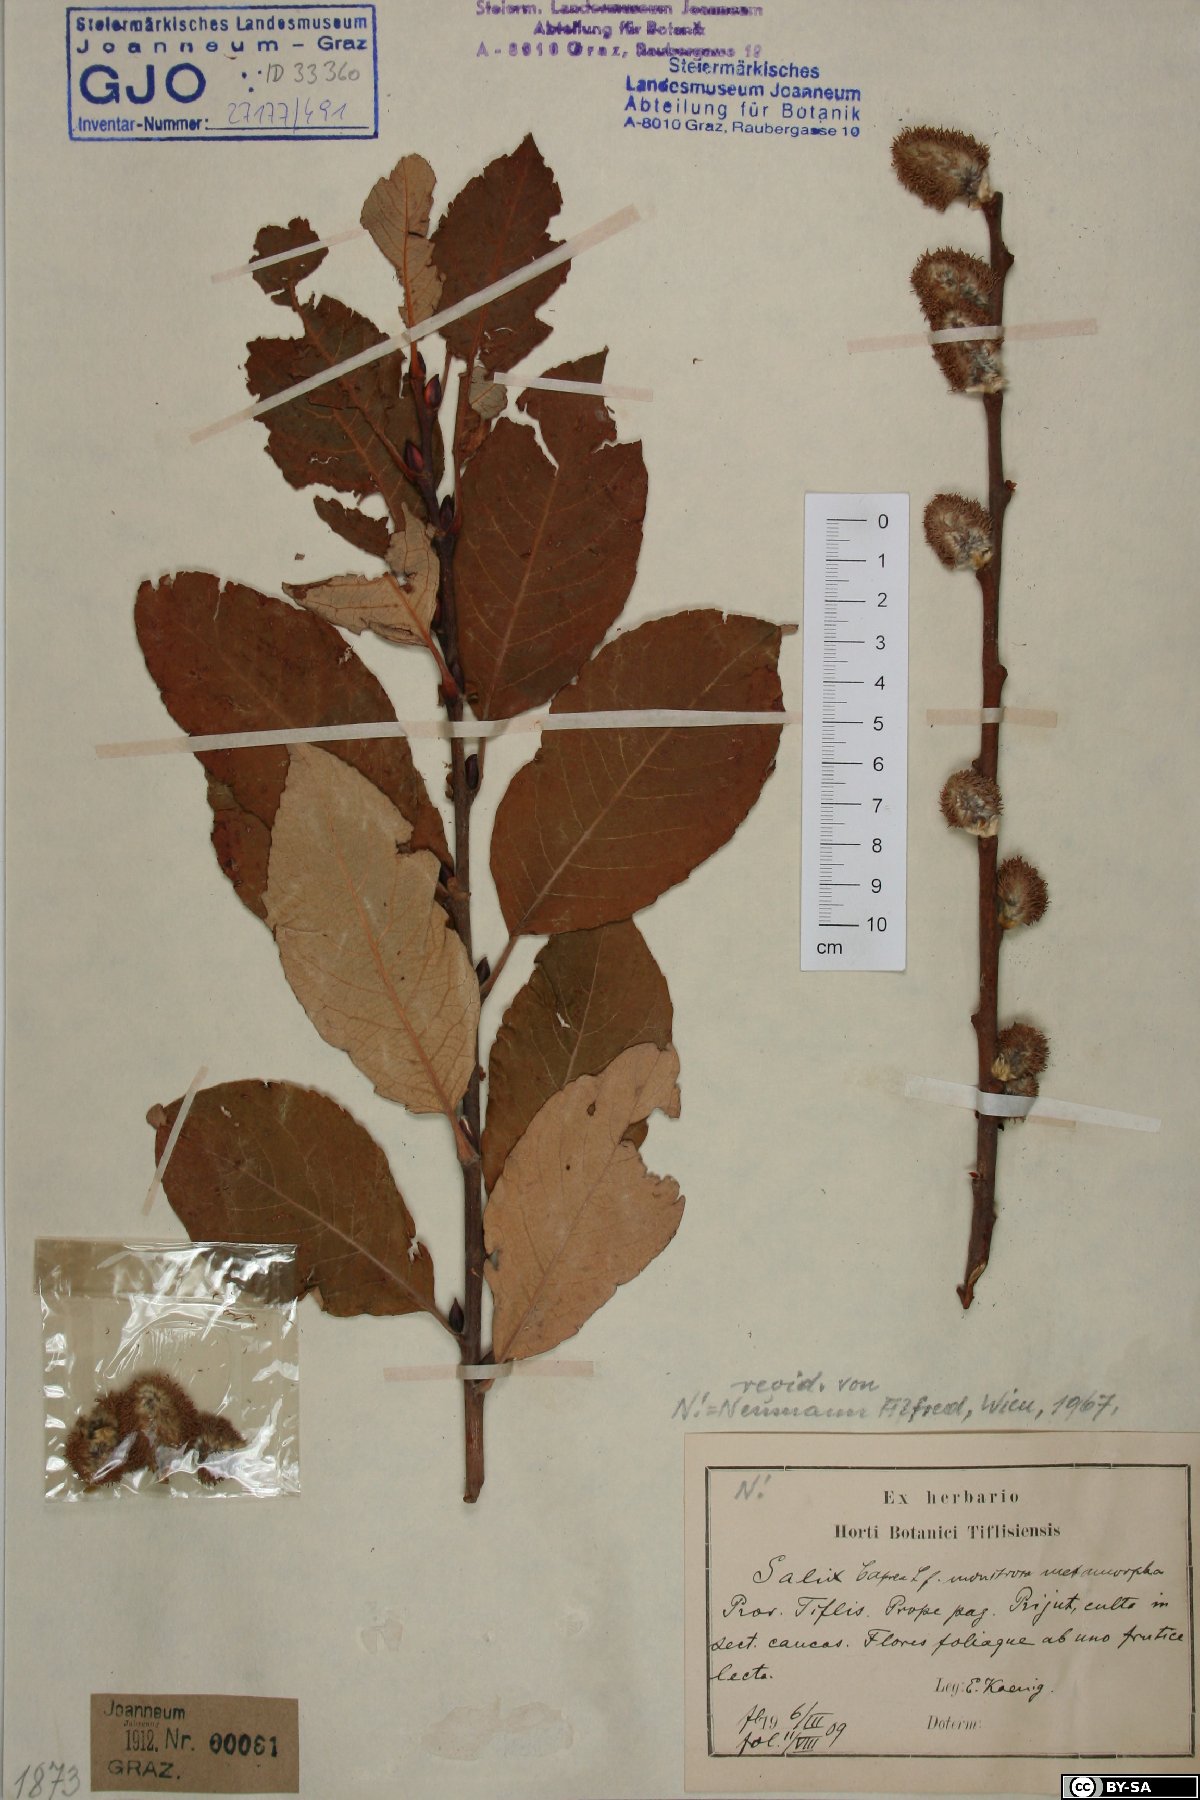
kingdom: Plantae
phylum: Tracheophyta
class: Magnoliopsida
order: Malpighiales
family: Salicaceae
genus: Salix
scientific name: Salix caprea
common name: Goat willow
